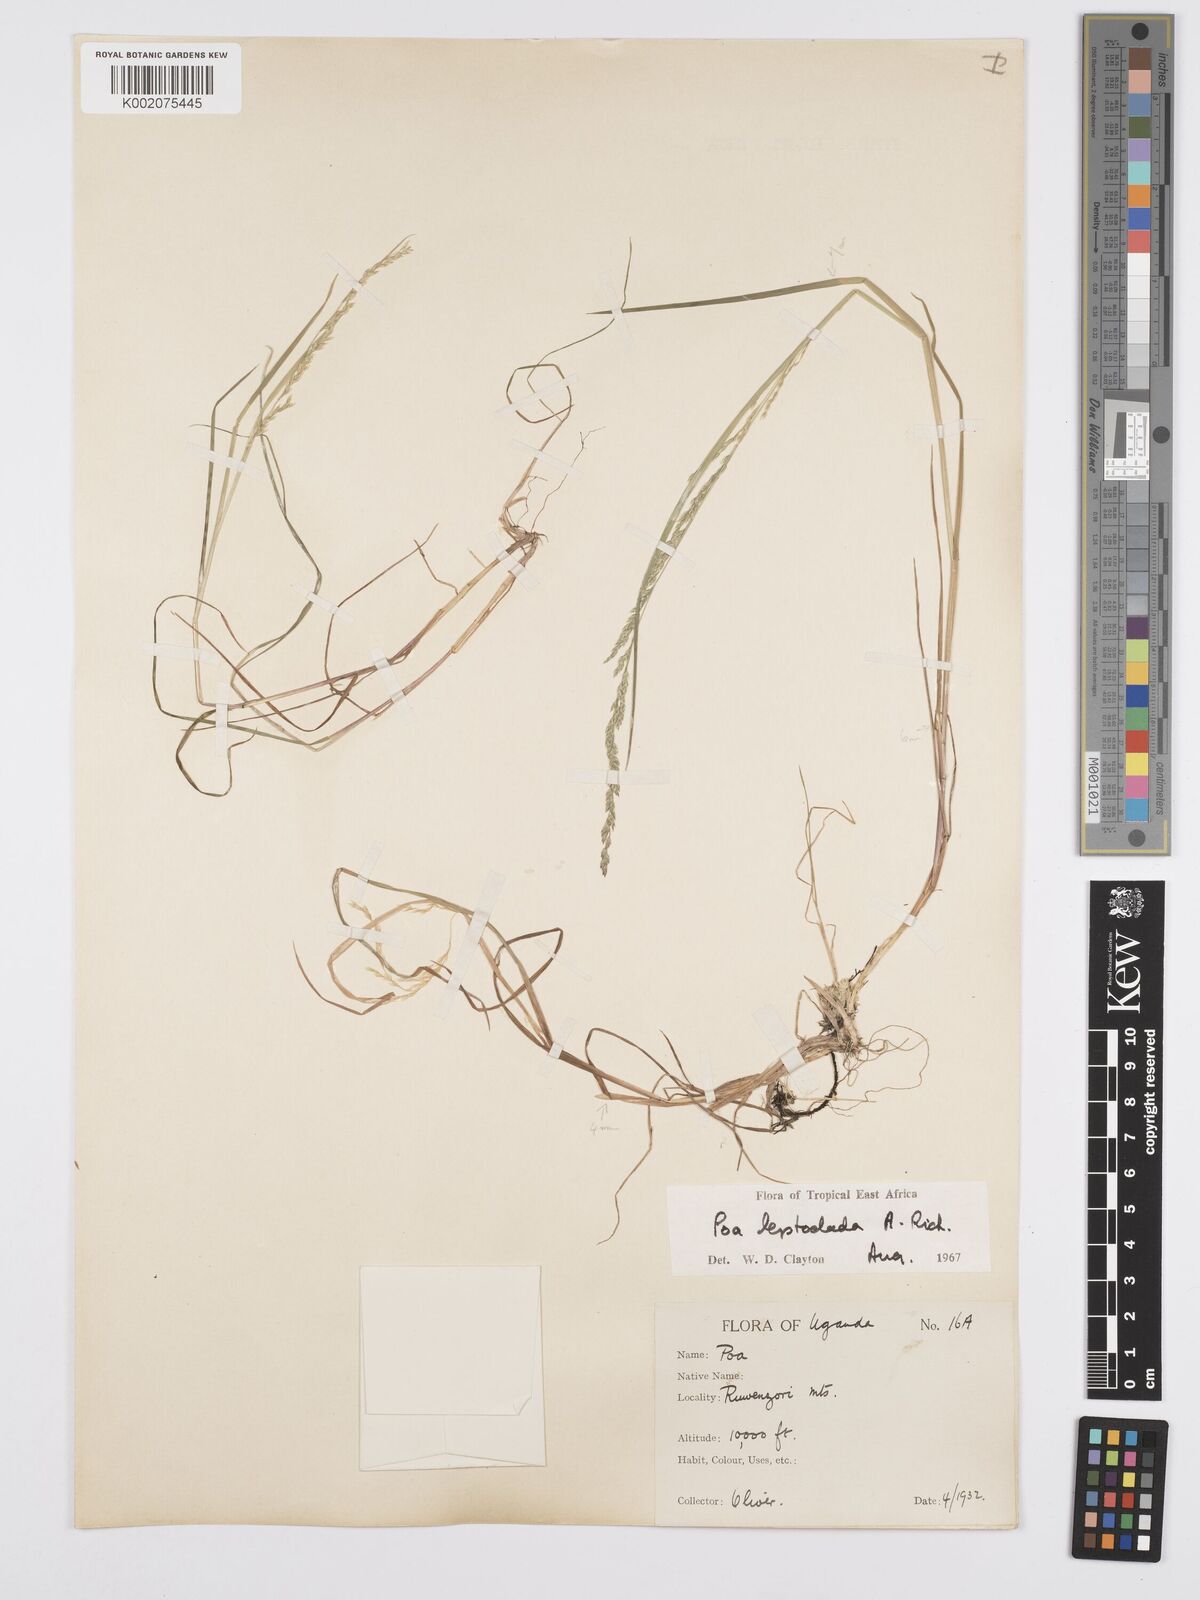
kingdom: Plantae
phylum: Tracheophyta
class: Liliopsida
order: Poales
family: Poaceae
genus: Poa
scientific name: Poa
